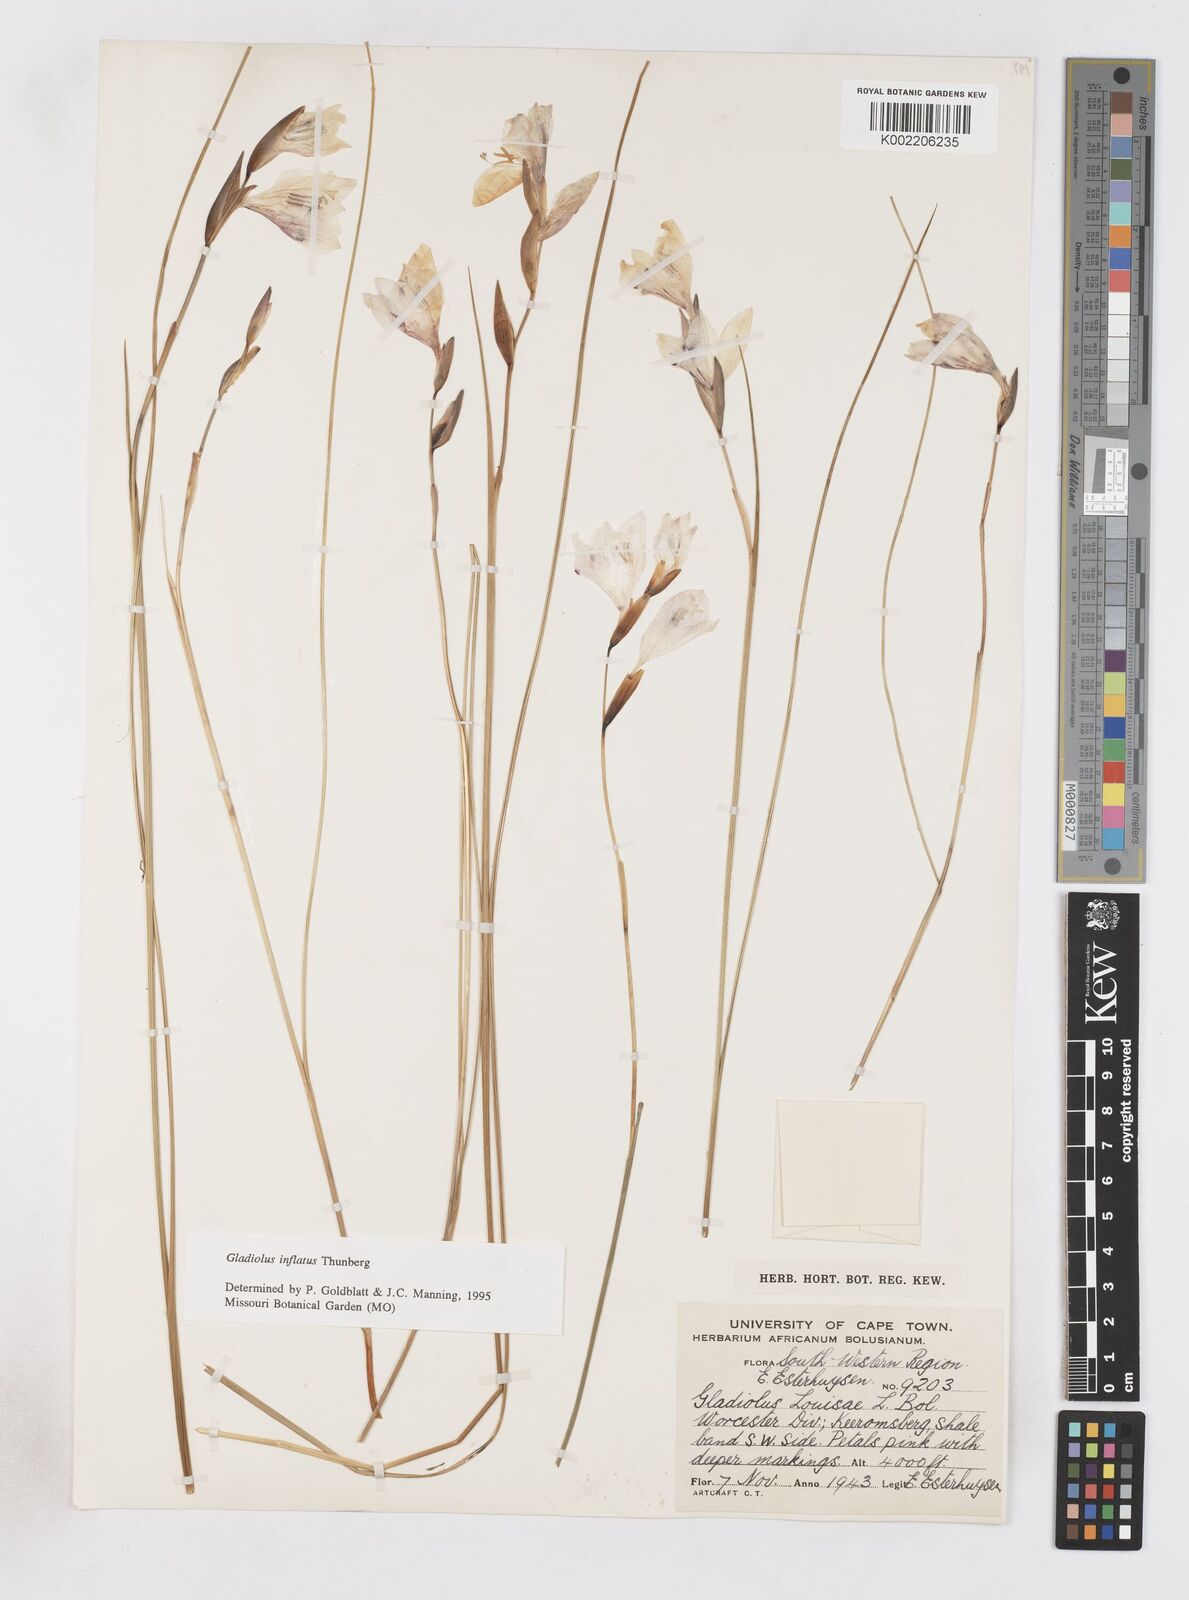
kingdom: Plantae
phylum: Tracheophyta
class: Liliopsida
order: Asparagales
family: Iridaceae
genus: Gladiolus
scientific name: Gladiolus inflatus
